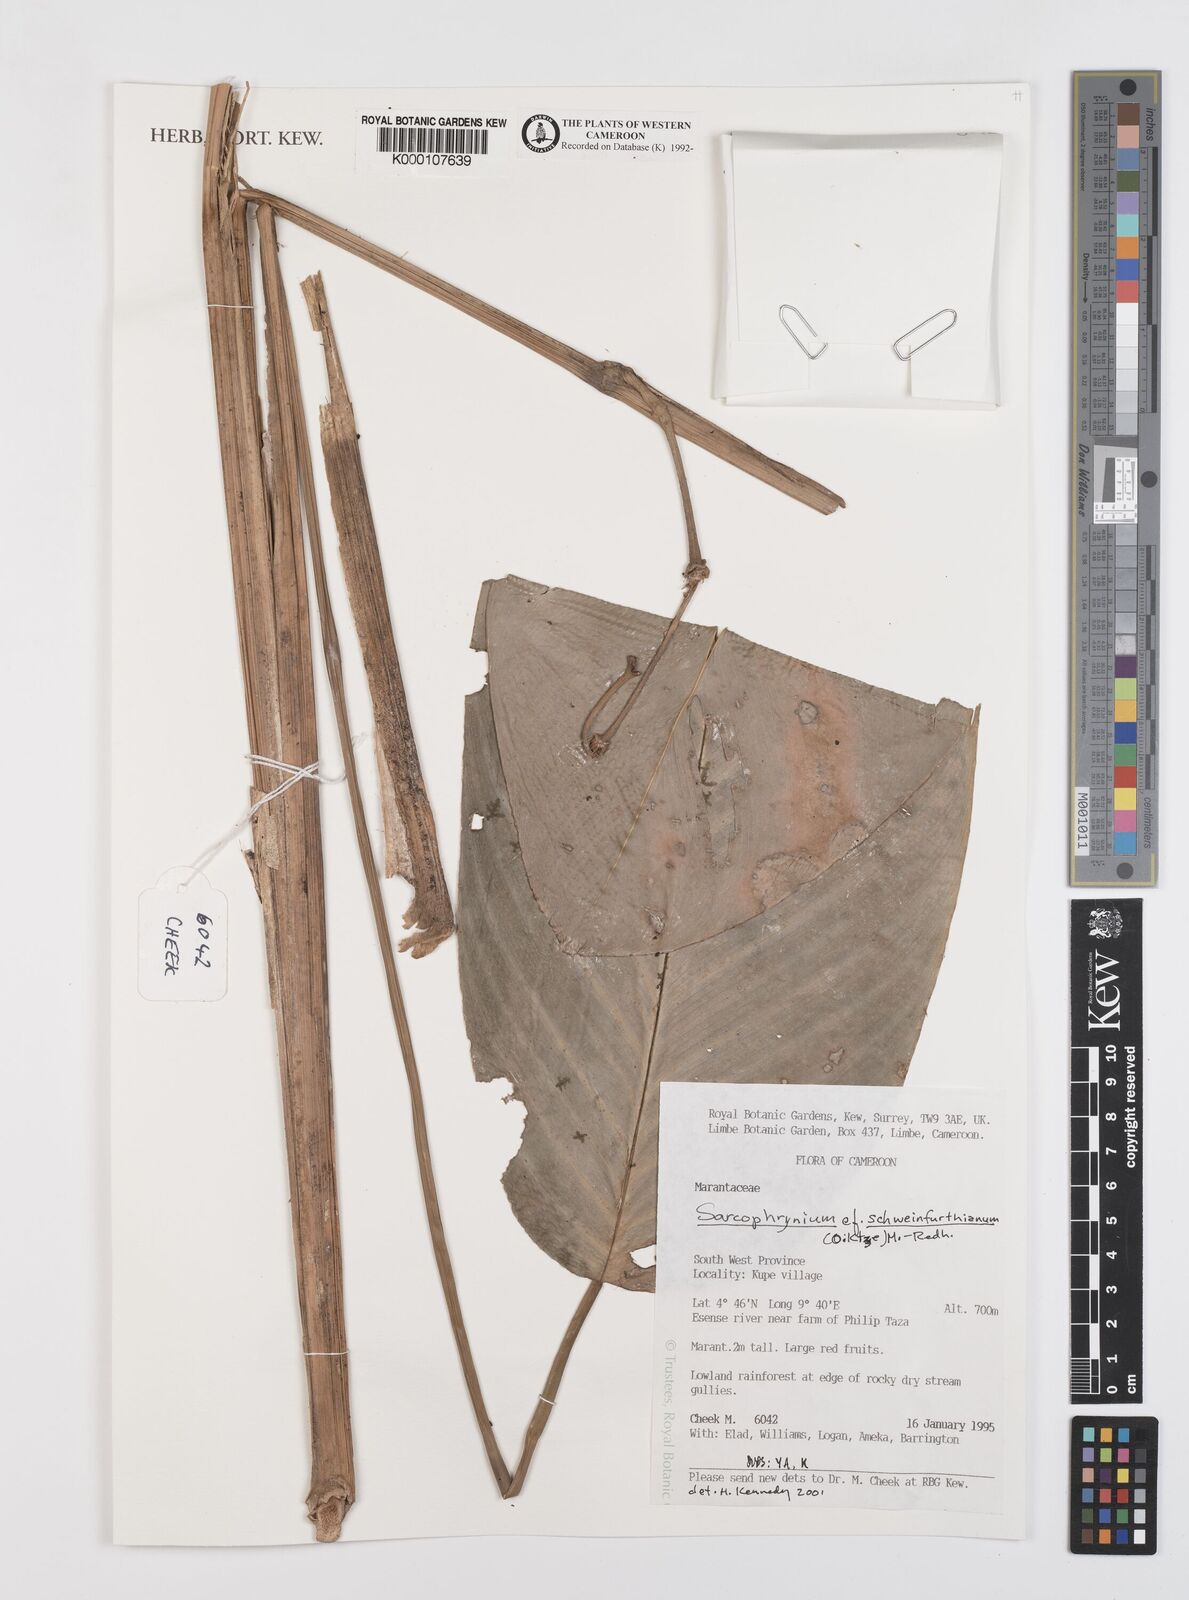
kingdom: Plantae
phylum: Tracheophyta
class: Liliopsida
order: Zingiberales
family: Marantaceae
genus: Sarcophrynium
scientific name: Sarcophrynium schweinfurthianum
